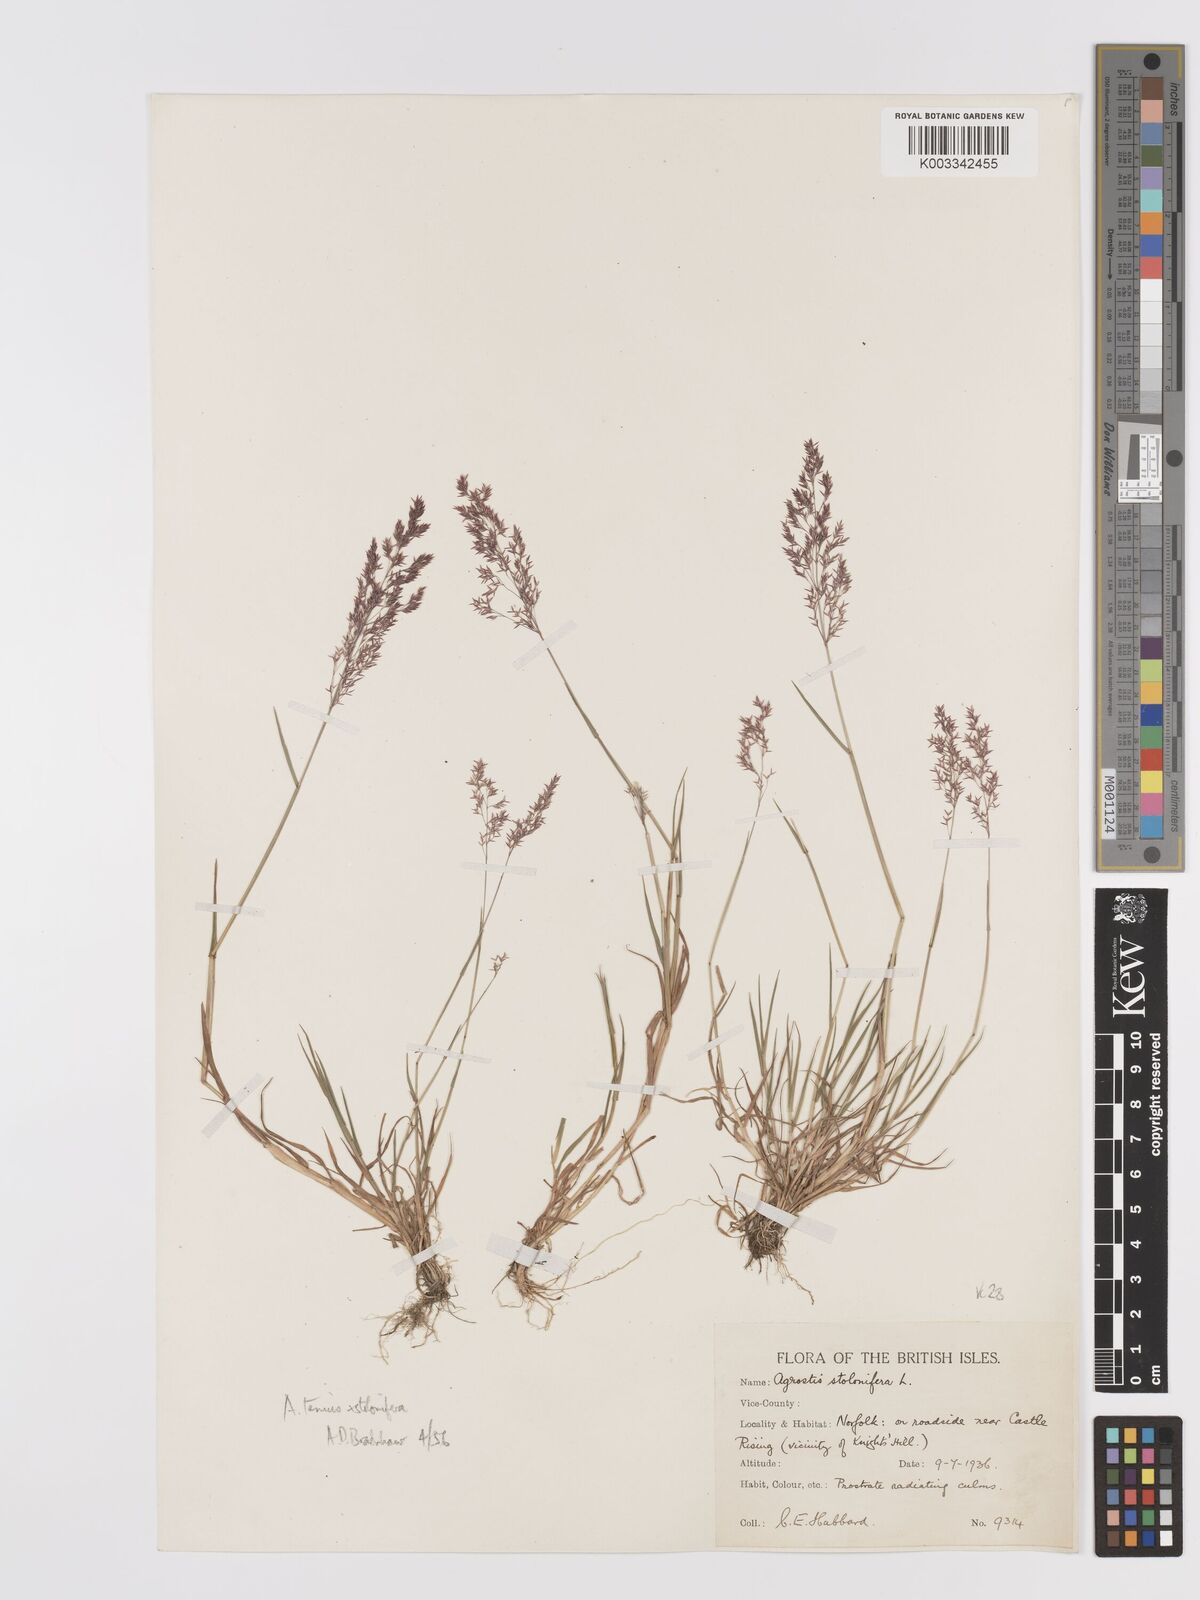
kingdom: Plantae
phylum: Tracheophyta
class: Liliopsida
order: Poales
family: Poaceae
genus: Agrostis
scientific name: Agrostis capillaris
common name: Colonial bentgrass
